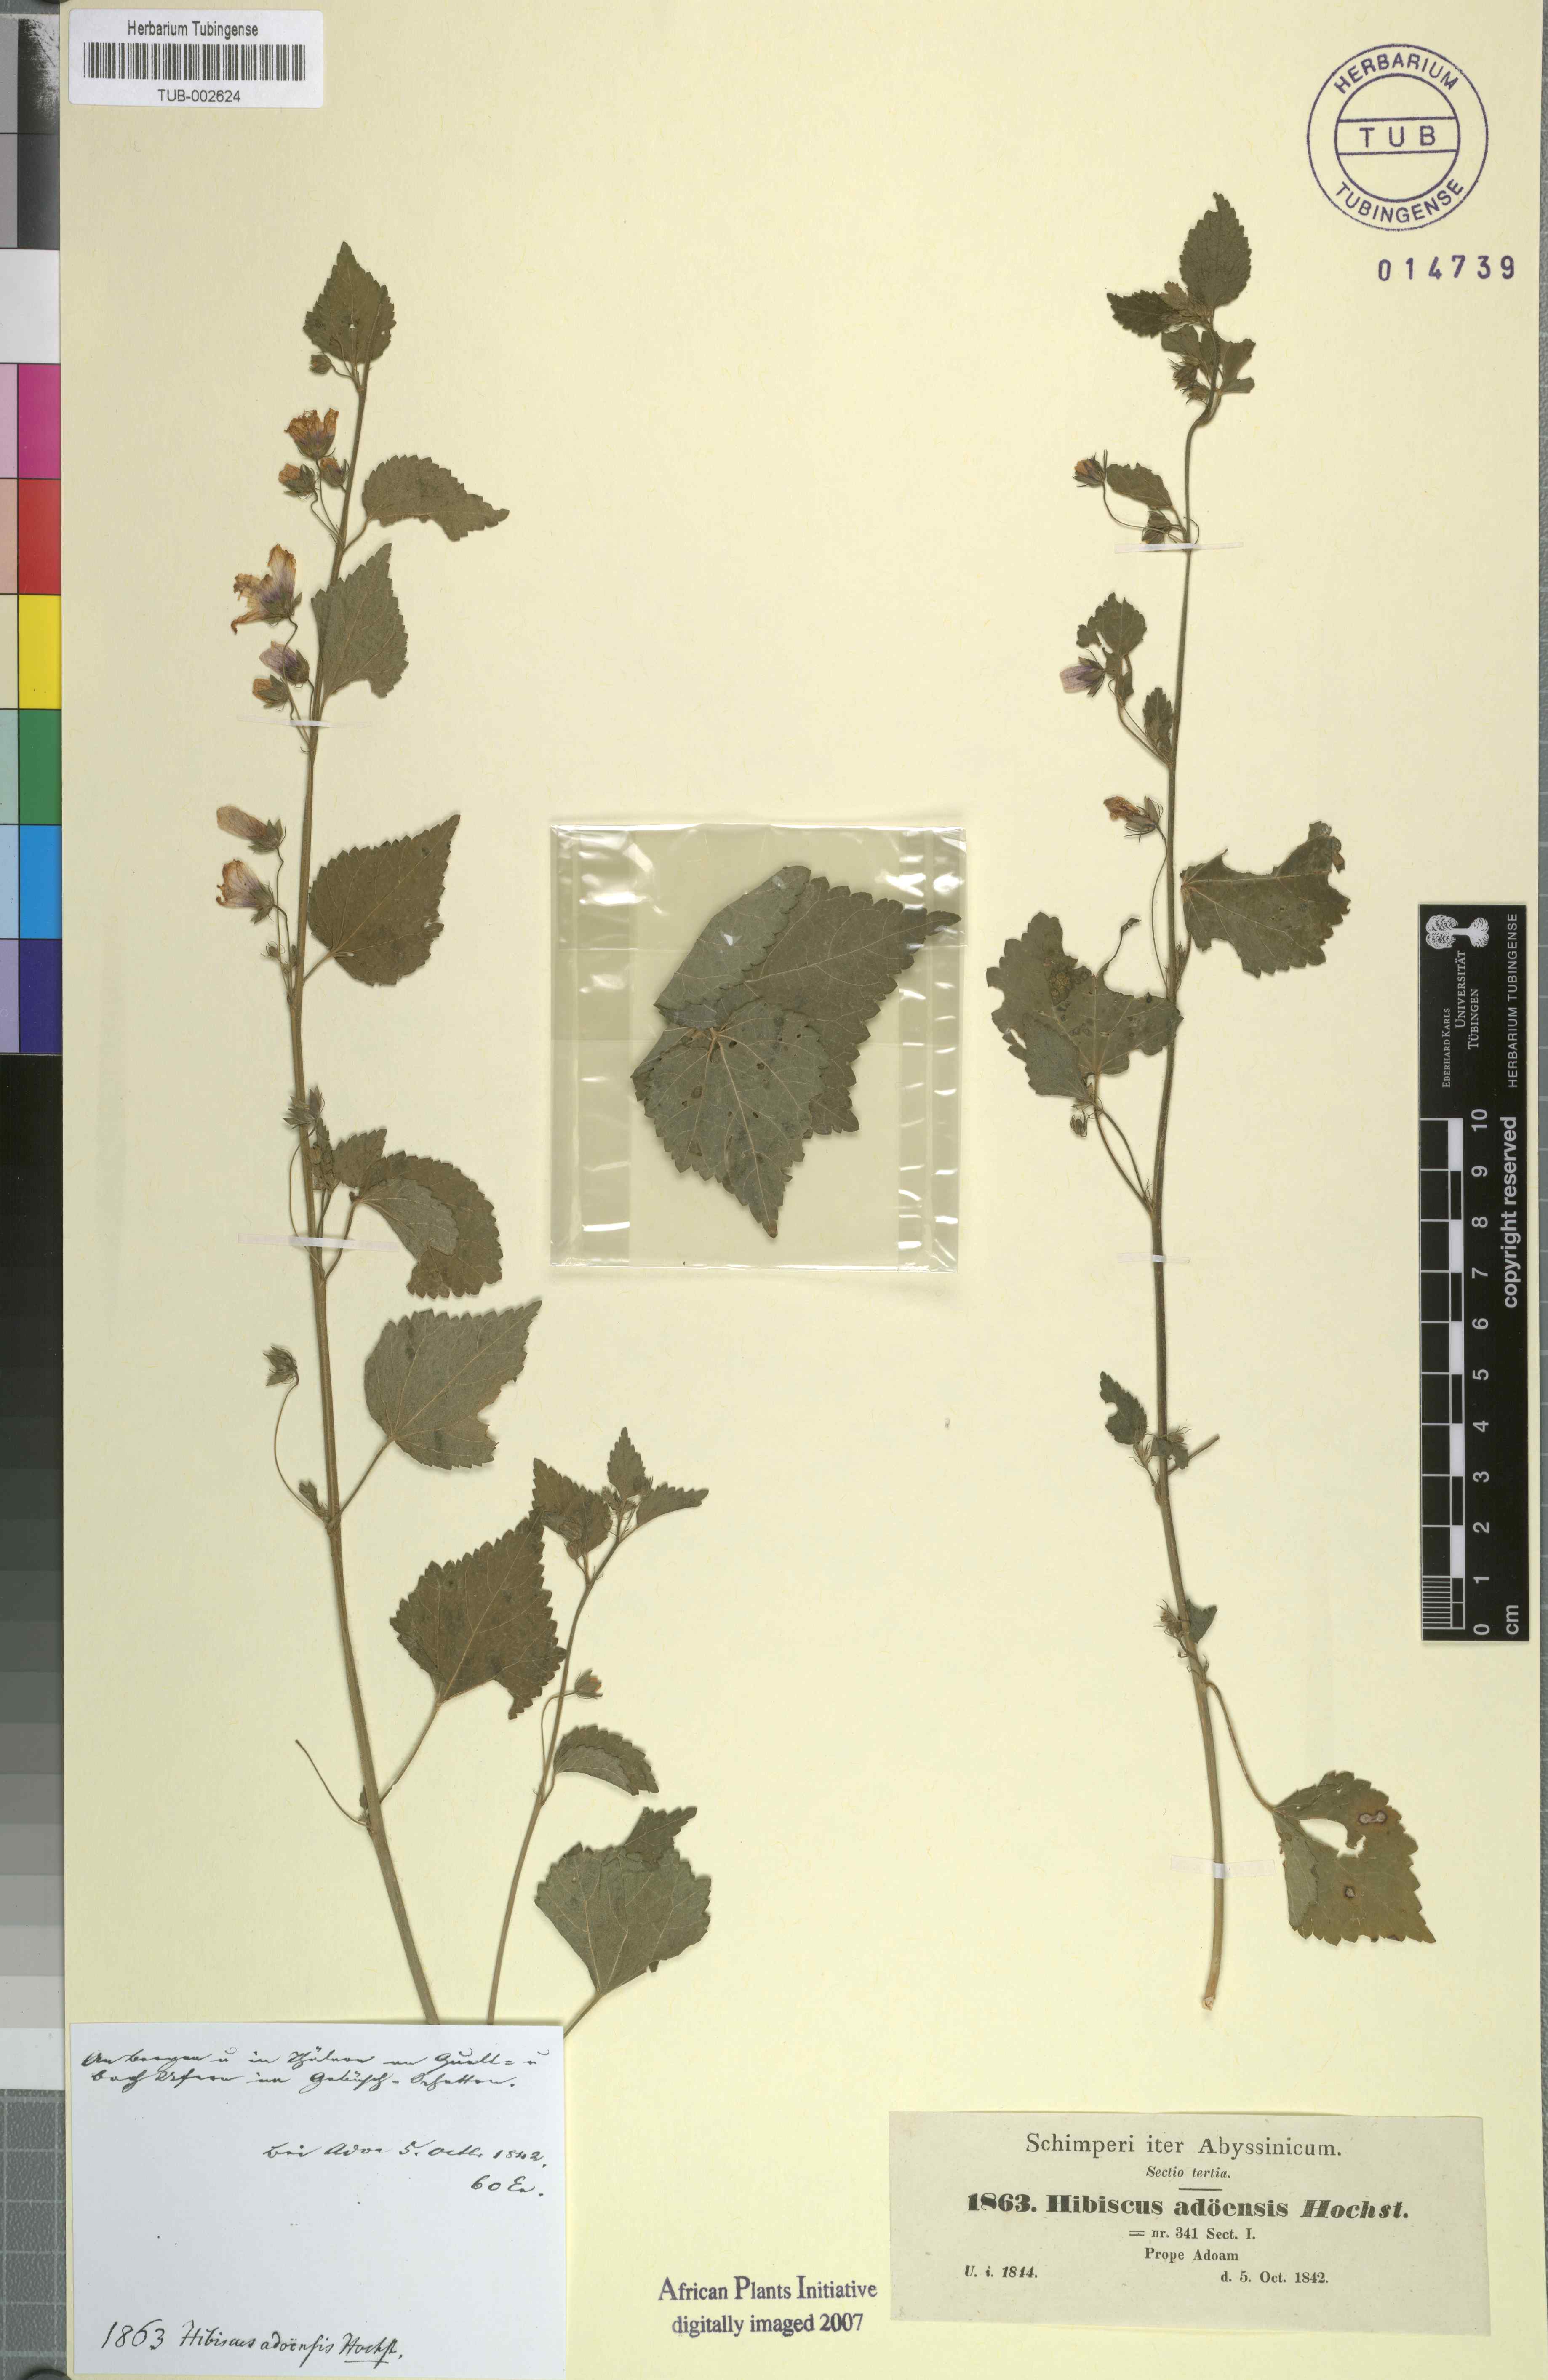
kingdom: Plantae
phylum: Tracheophyta
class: Magnoliopsida
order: Malvales
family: Malvaceae
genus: Kosteletzkya
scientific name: Kosteletzkya adoensis
